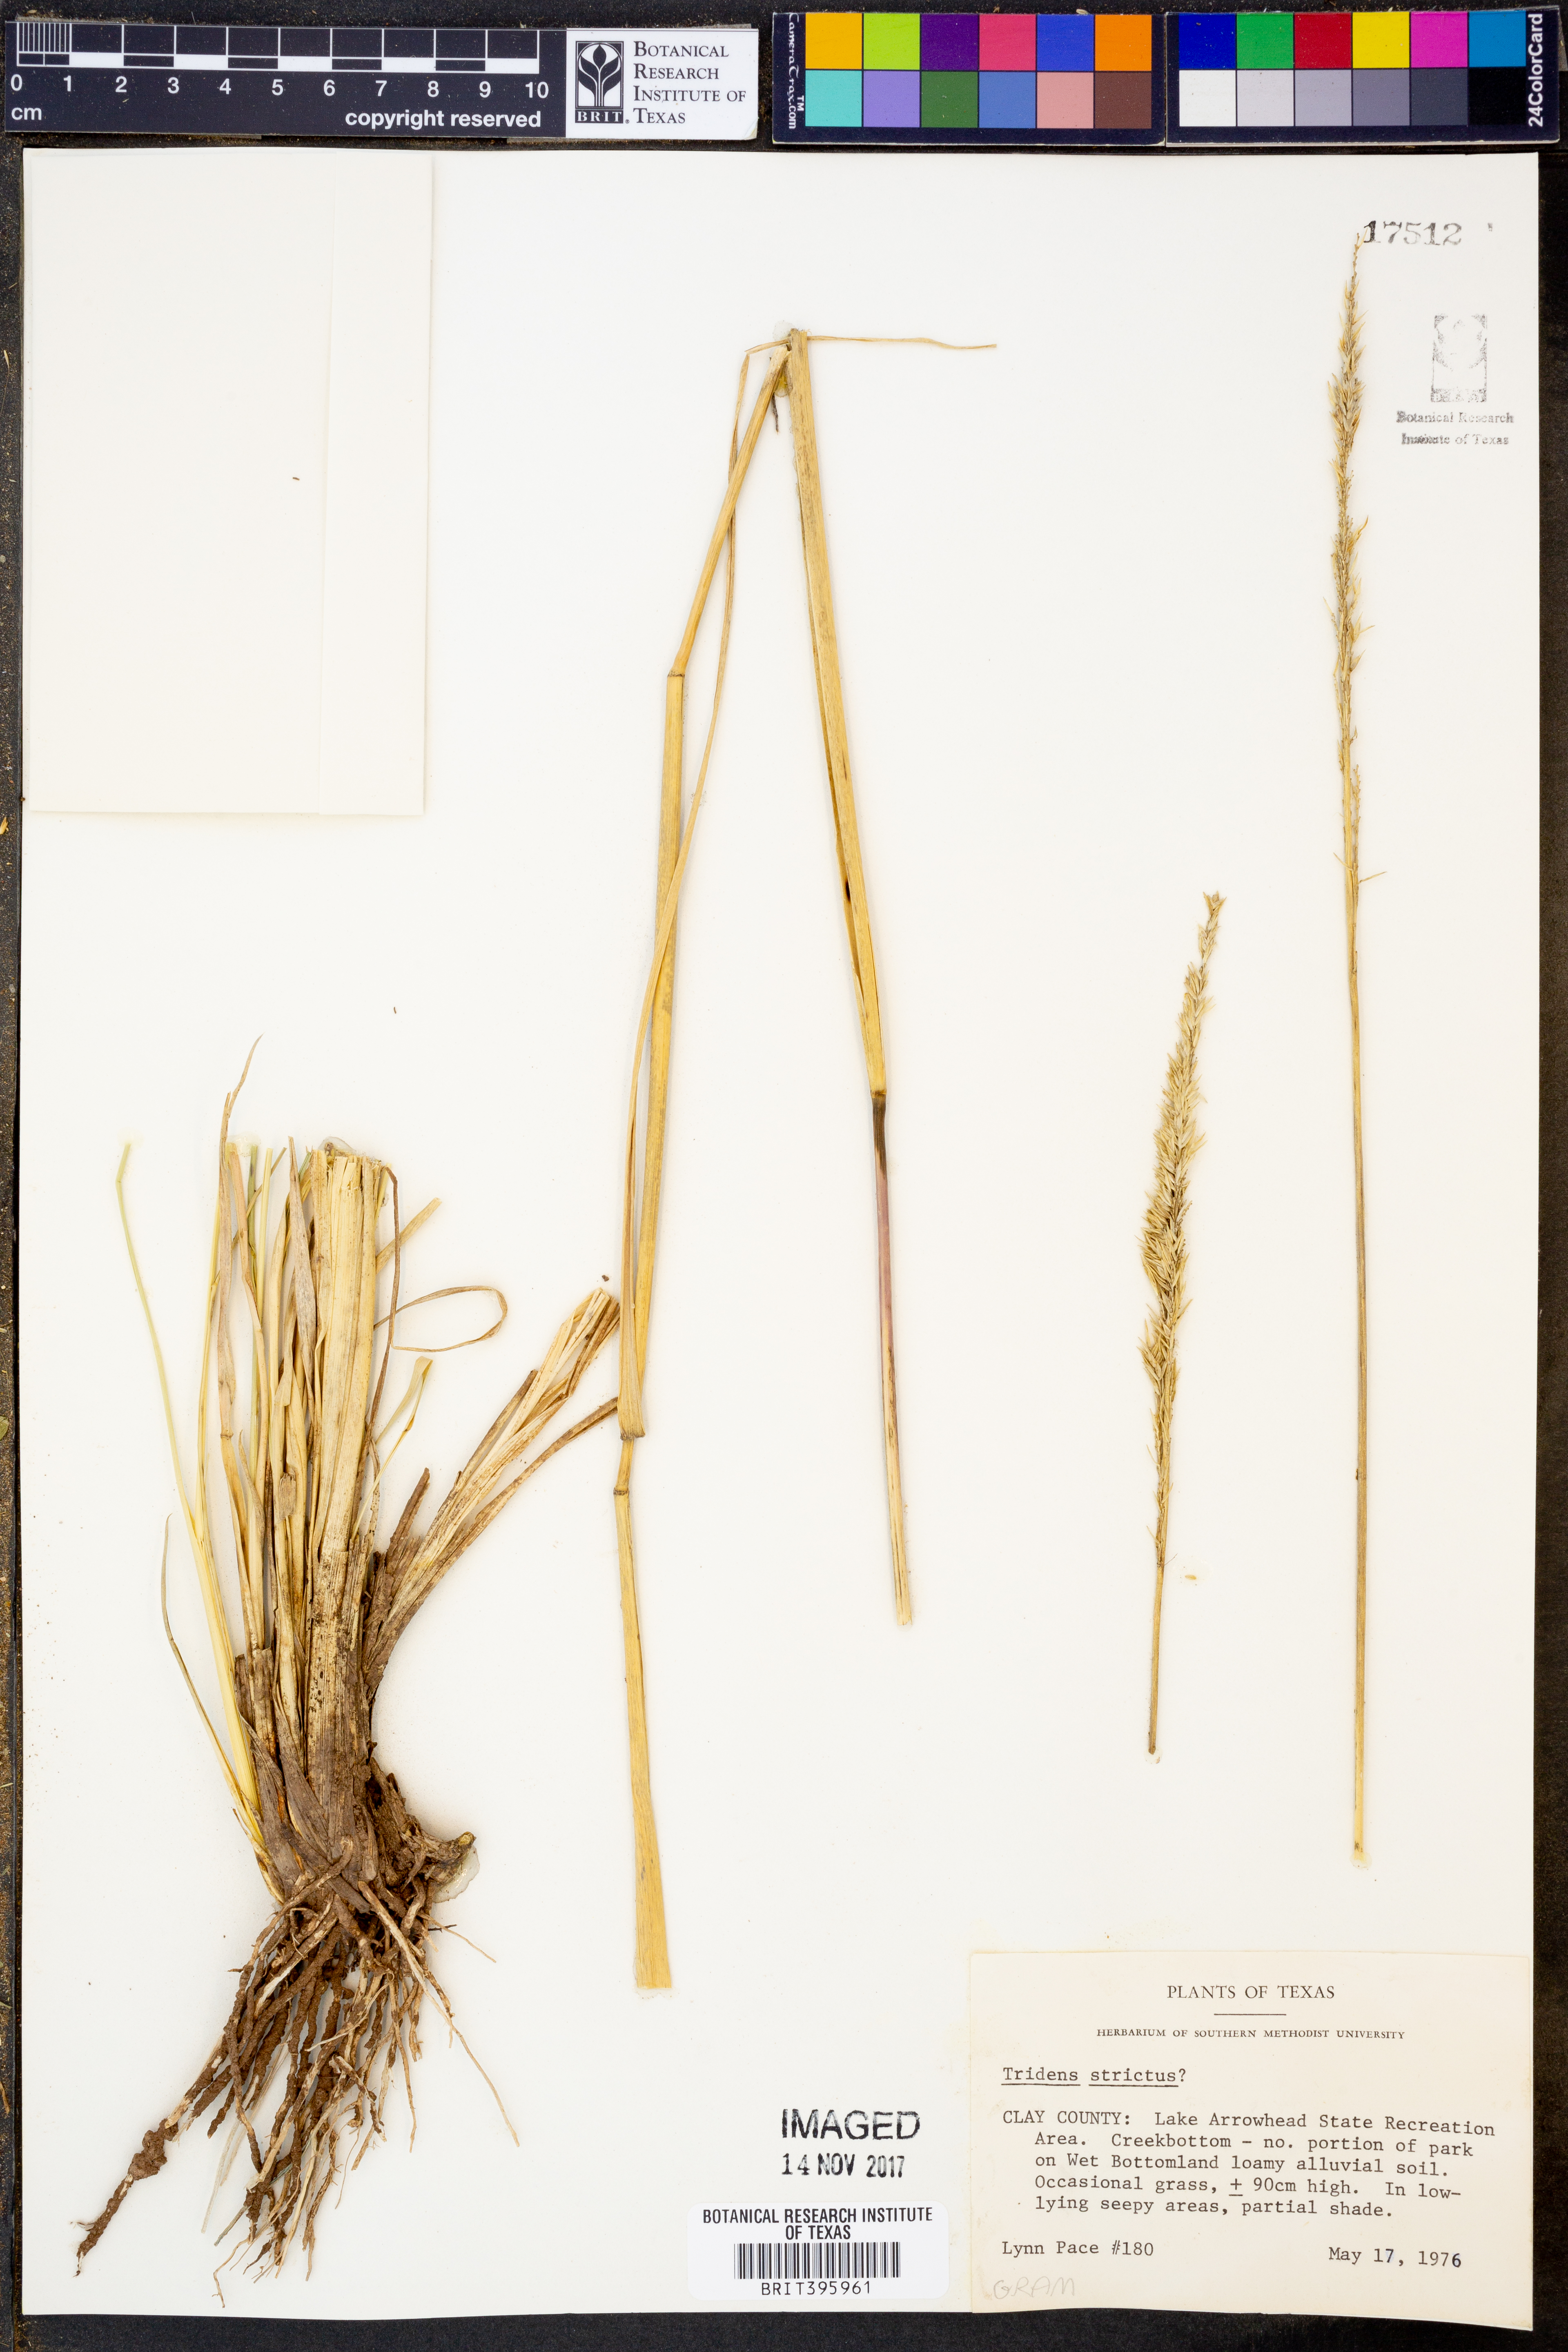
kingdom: Plantae
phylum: Tracheophyta
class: Liliopsida
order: Poales
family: Poaceae
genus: Tridens
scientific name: Tridens strictus
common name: Long-spike tridens
